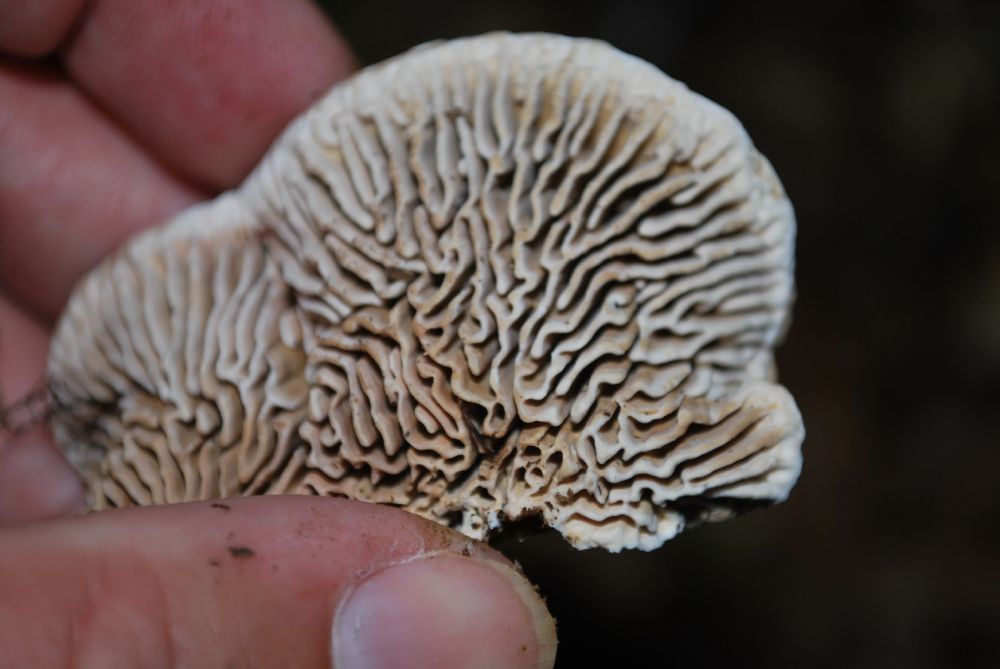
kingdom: Fungi
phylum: Basidiomycota
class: Agaricomycetes
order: Polyporales
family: Polyporaceae
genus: Daedaleopsis
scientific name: Daedaleopsis confragosa
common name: rødmende læderporesvamp
